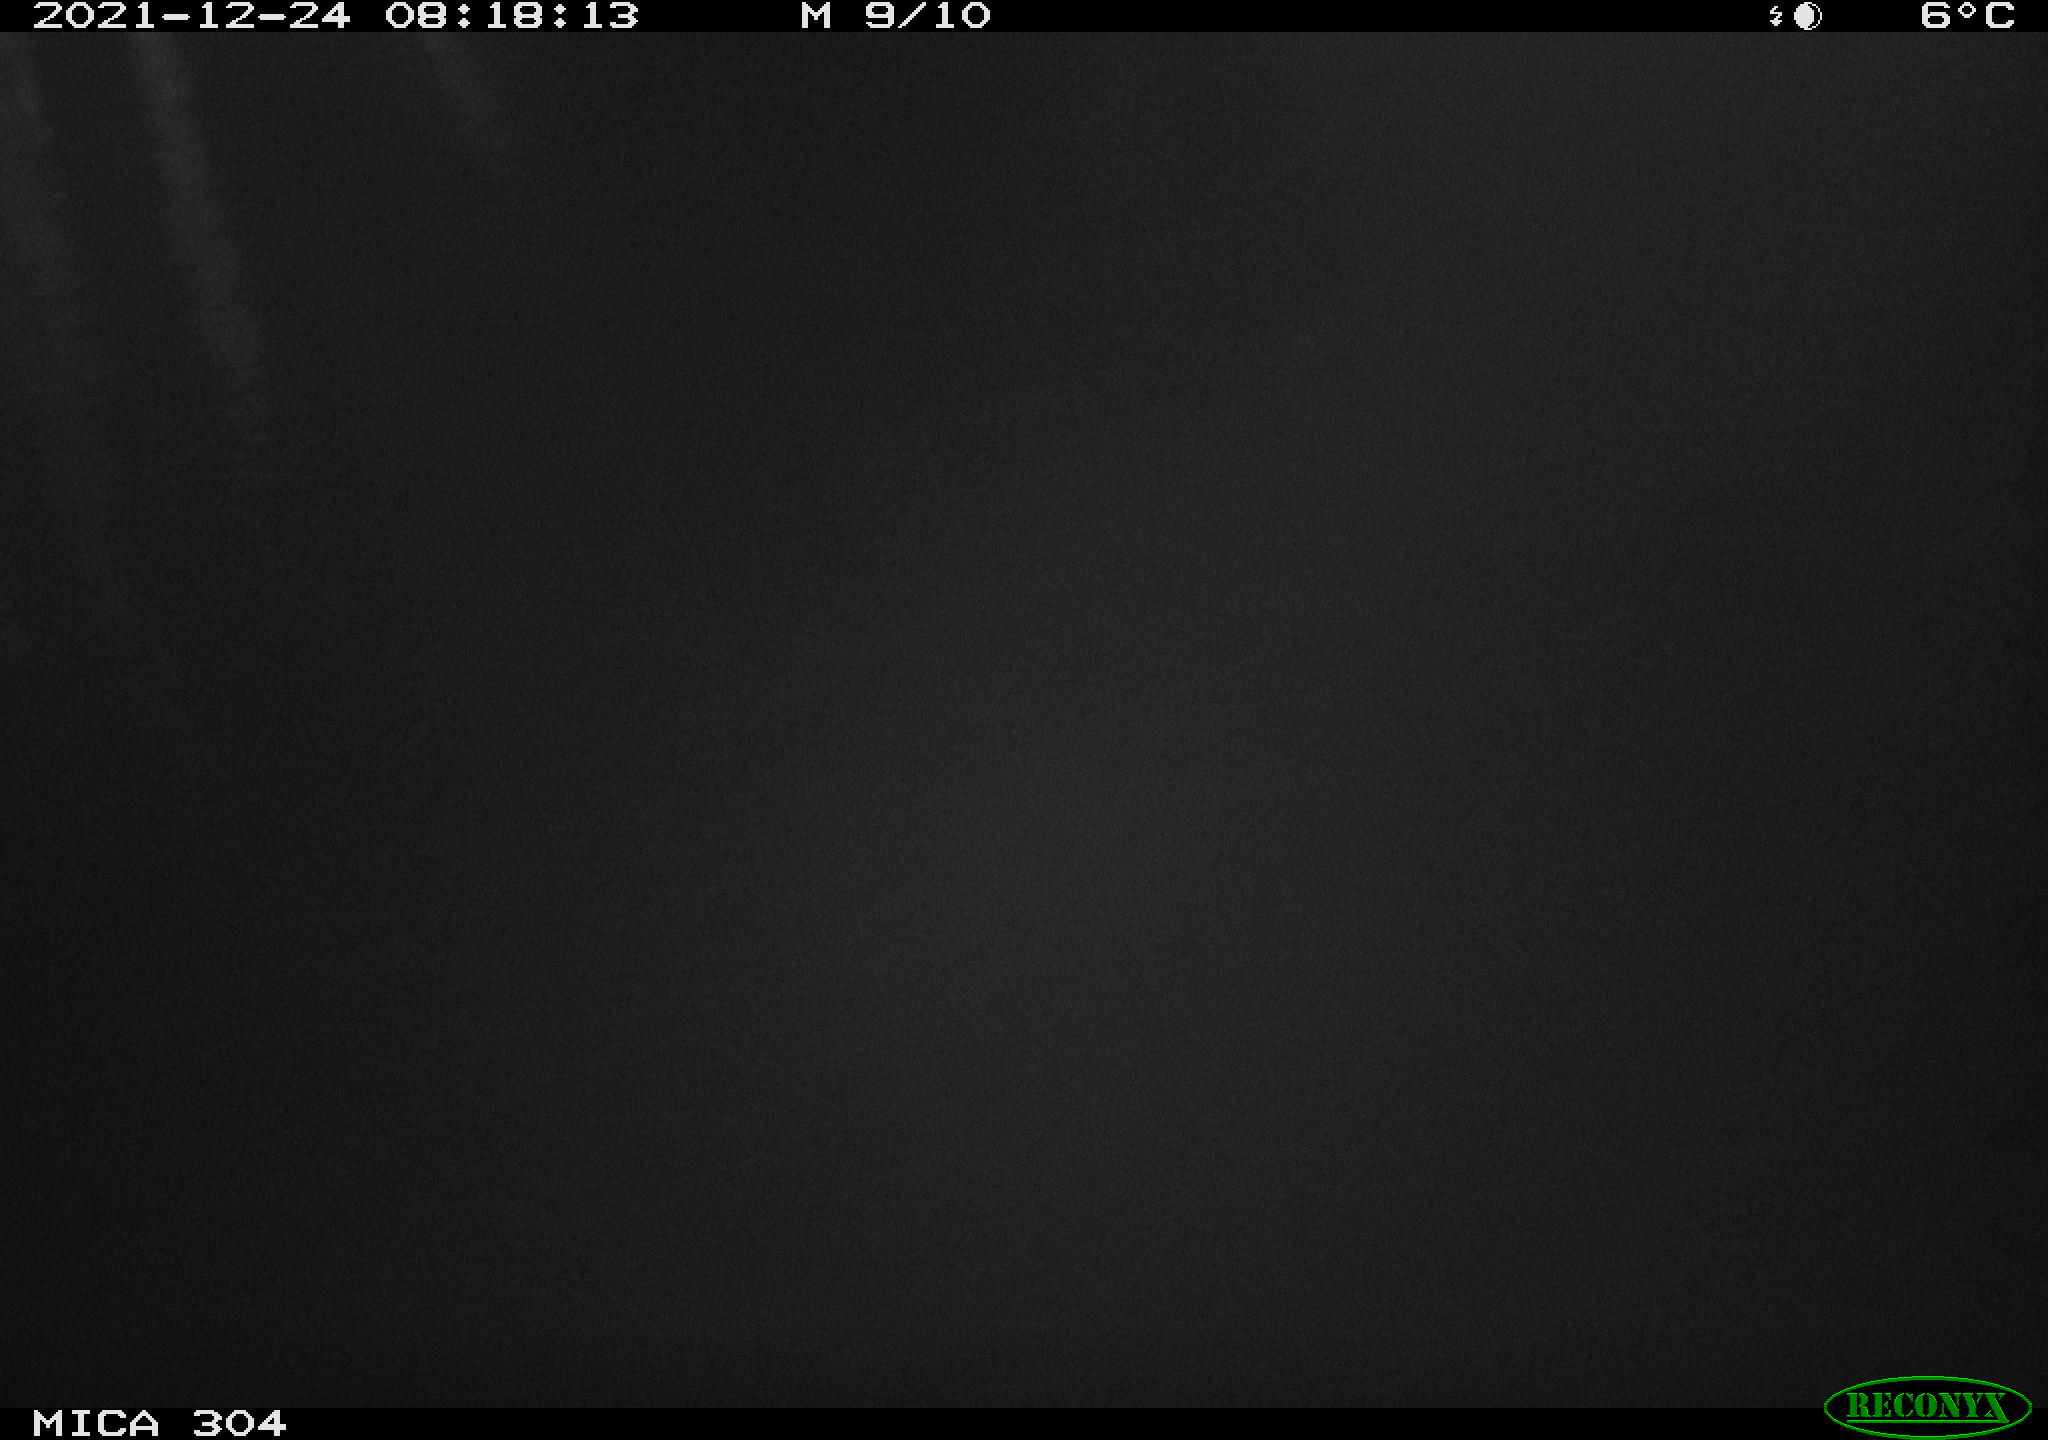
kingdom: Animalia
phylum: Chordata
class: Aves
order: Gruiformes
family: Rallidae
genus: Fulica
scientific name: Fulica atra
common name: Eurasian coot
